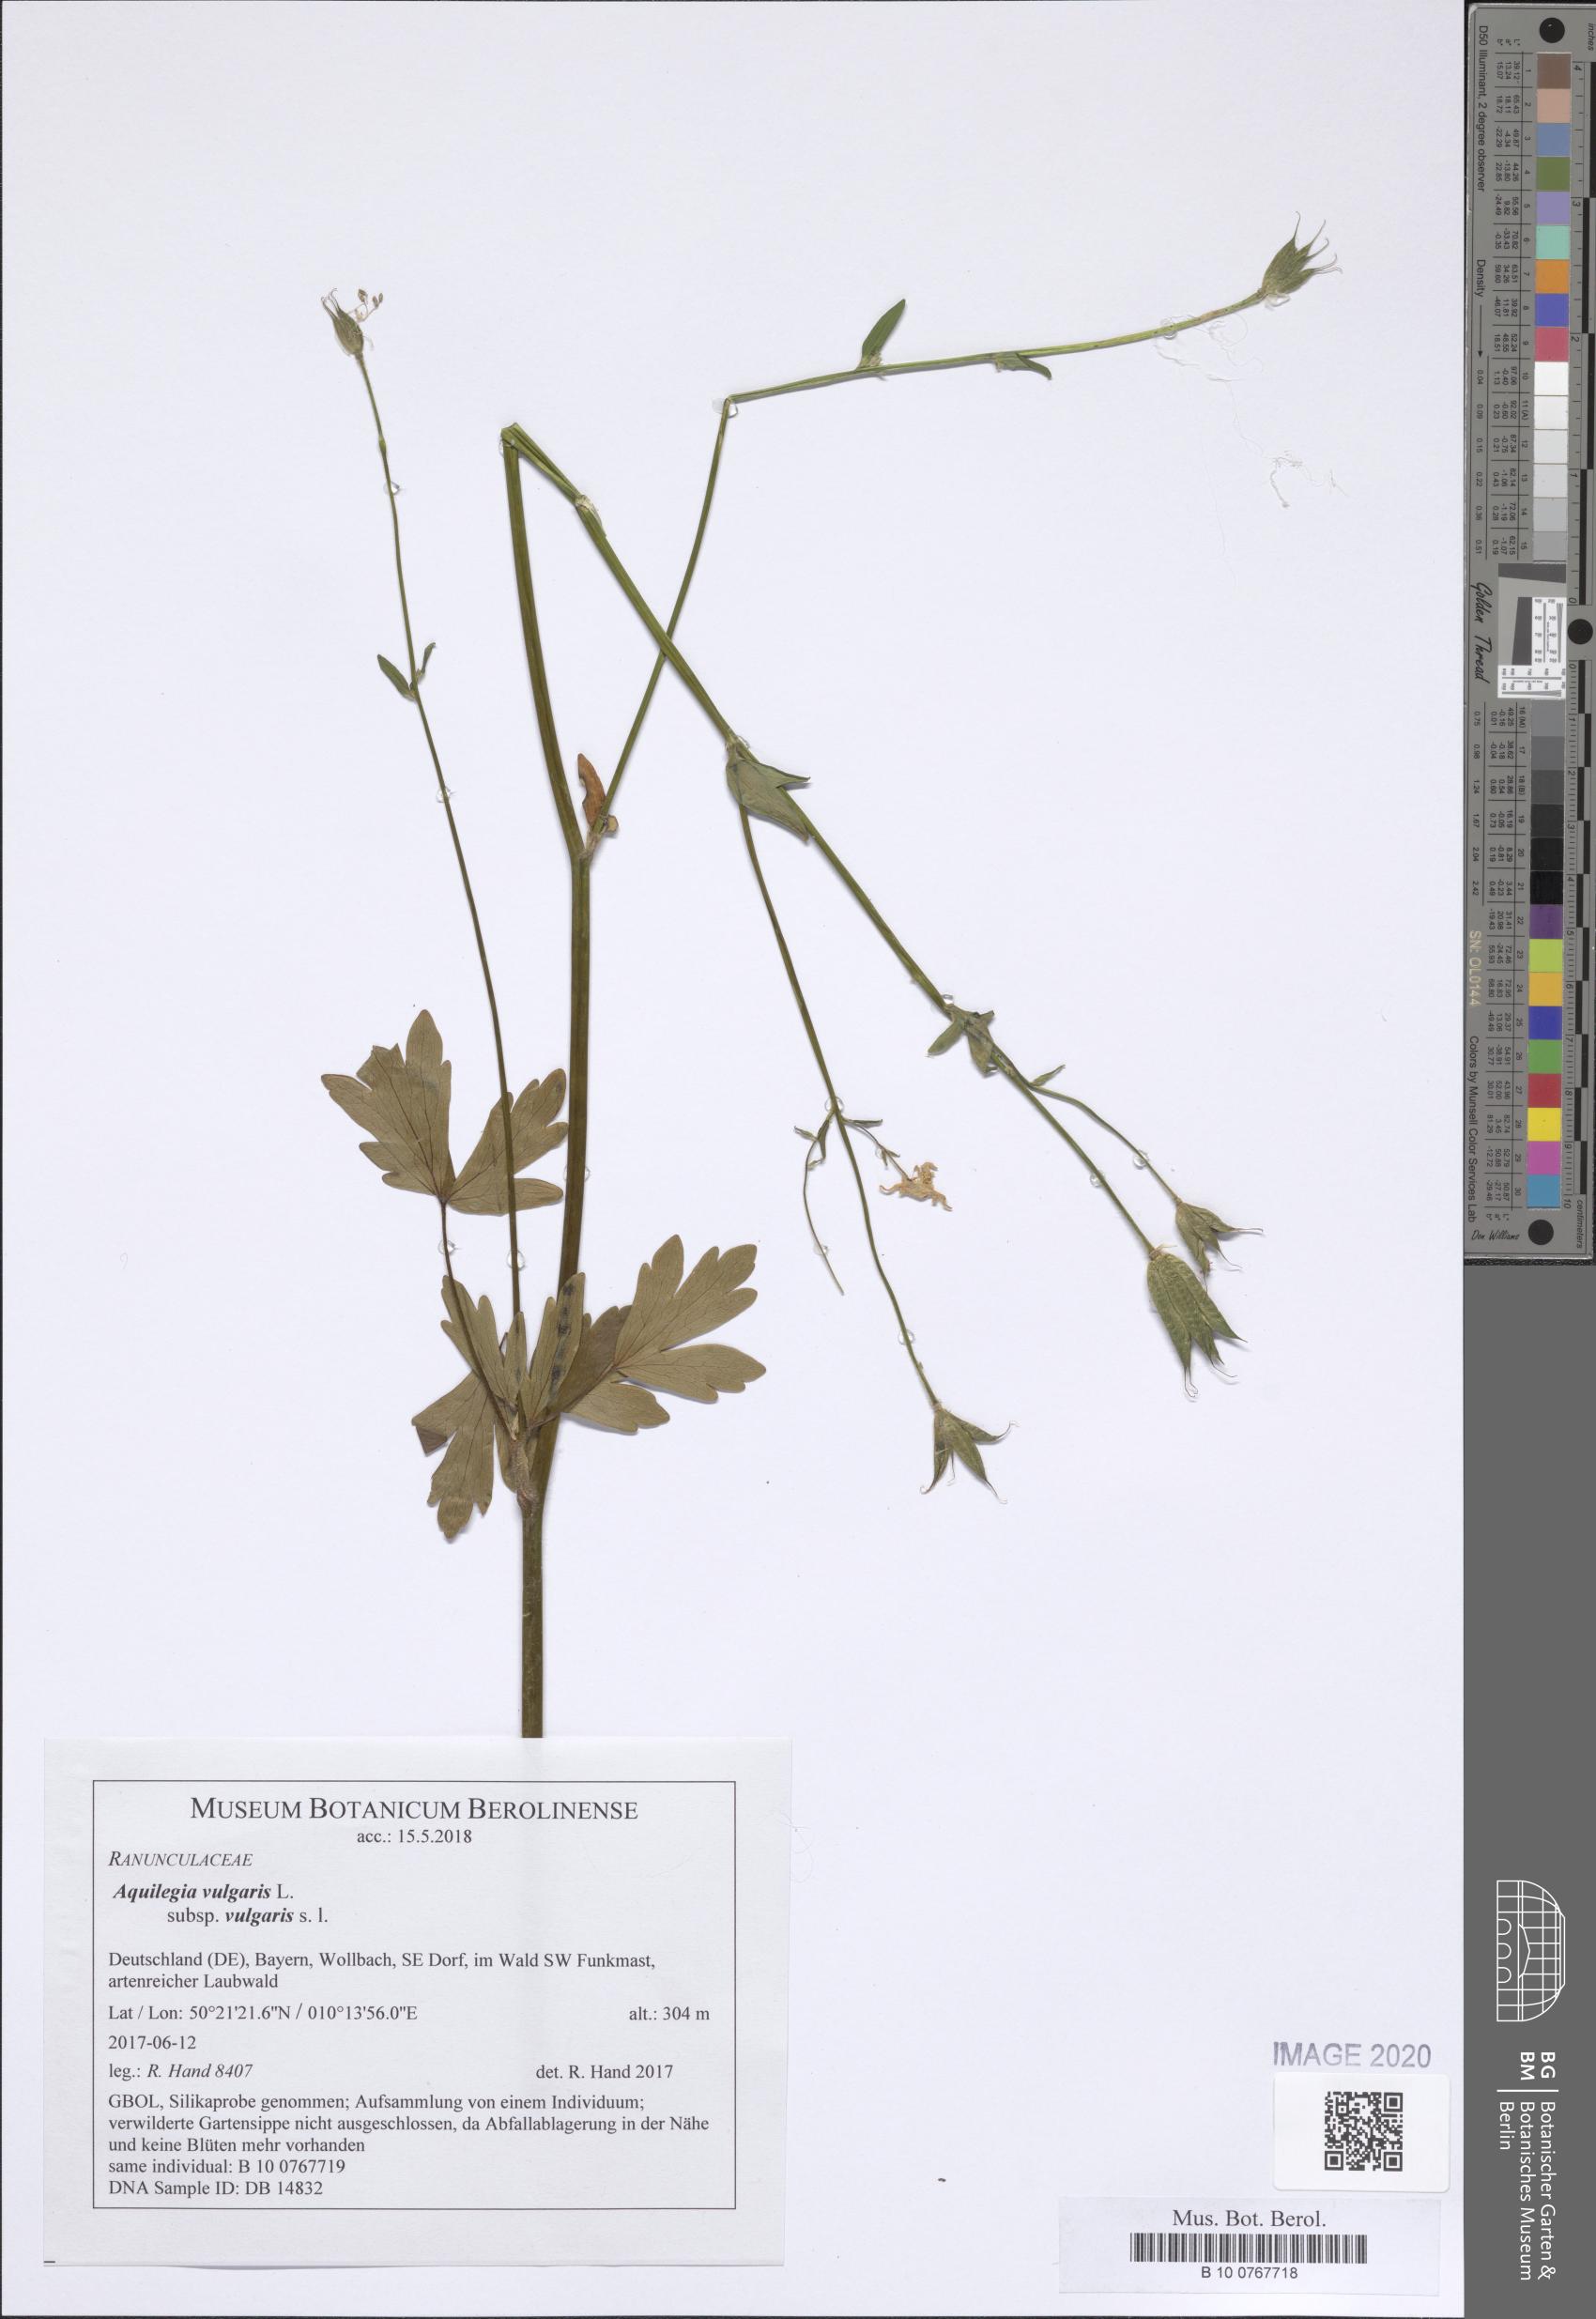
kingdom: Plantae
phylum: Tracheophyta
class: Magnoliopsida
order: Ranunculales
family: Ranunculaceae
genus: Aquilegia
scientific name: Aquilegia vulgaris
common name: Columbine
